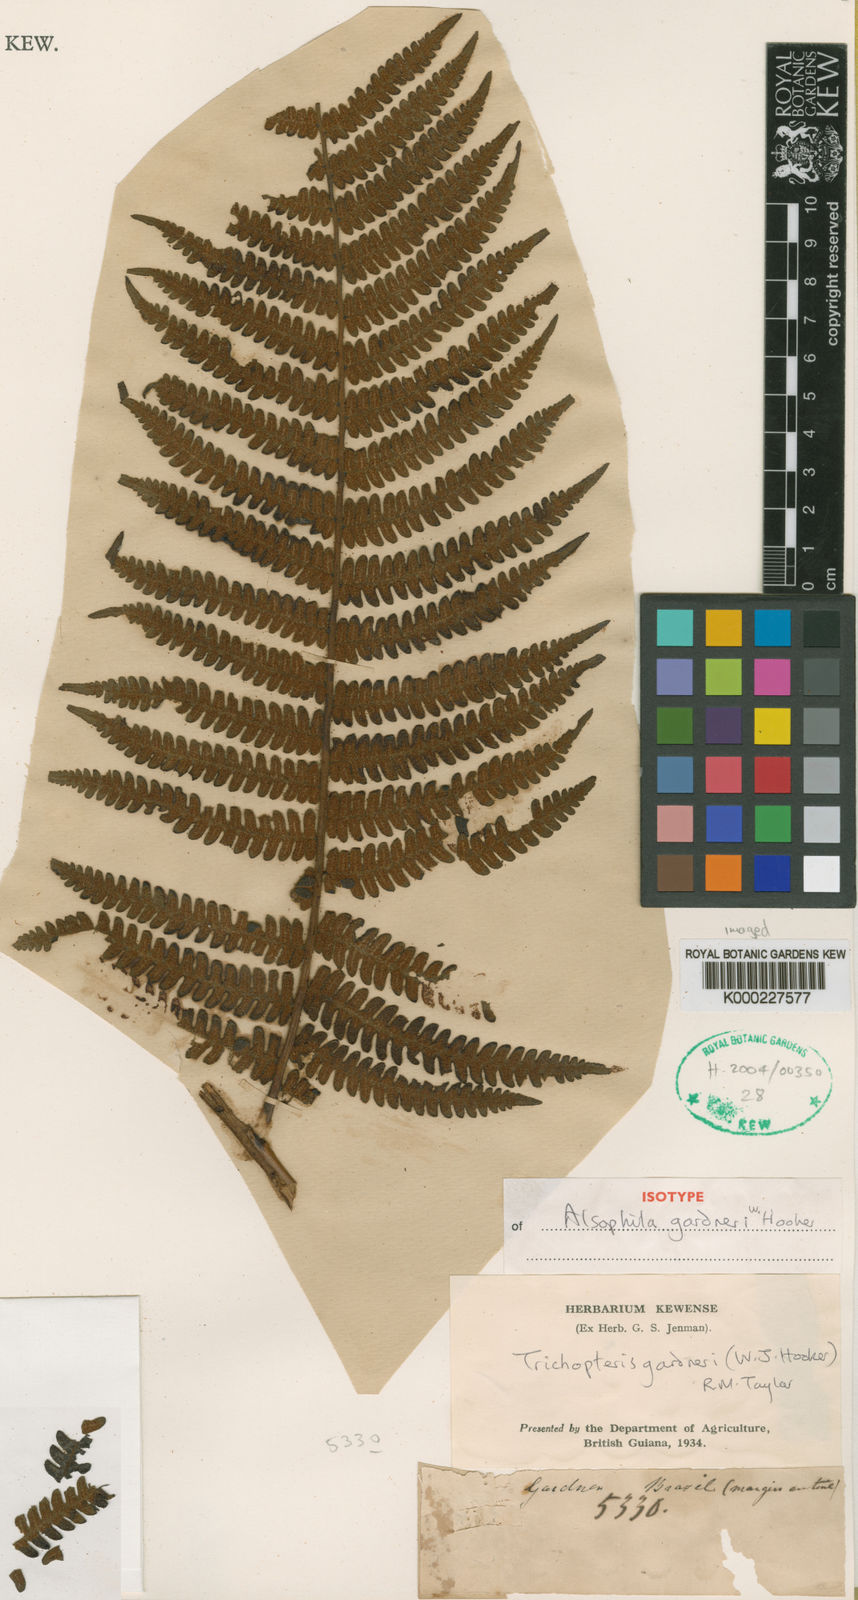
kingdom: Plantae
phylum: Tracheophyta
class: Polypodiopsida
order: Cyatheales
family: Cyatheaceae
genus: Sphaeropteris
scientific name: Sphaeropteris gardneri
